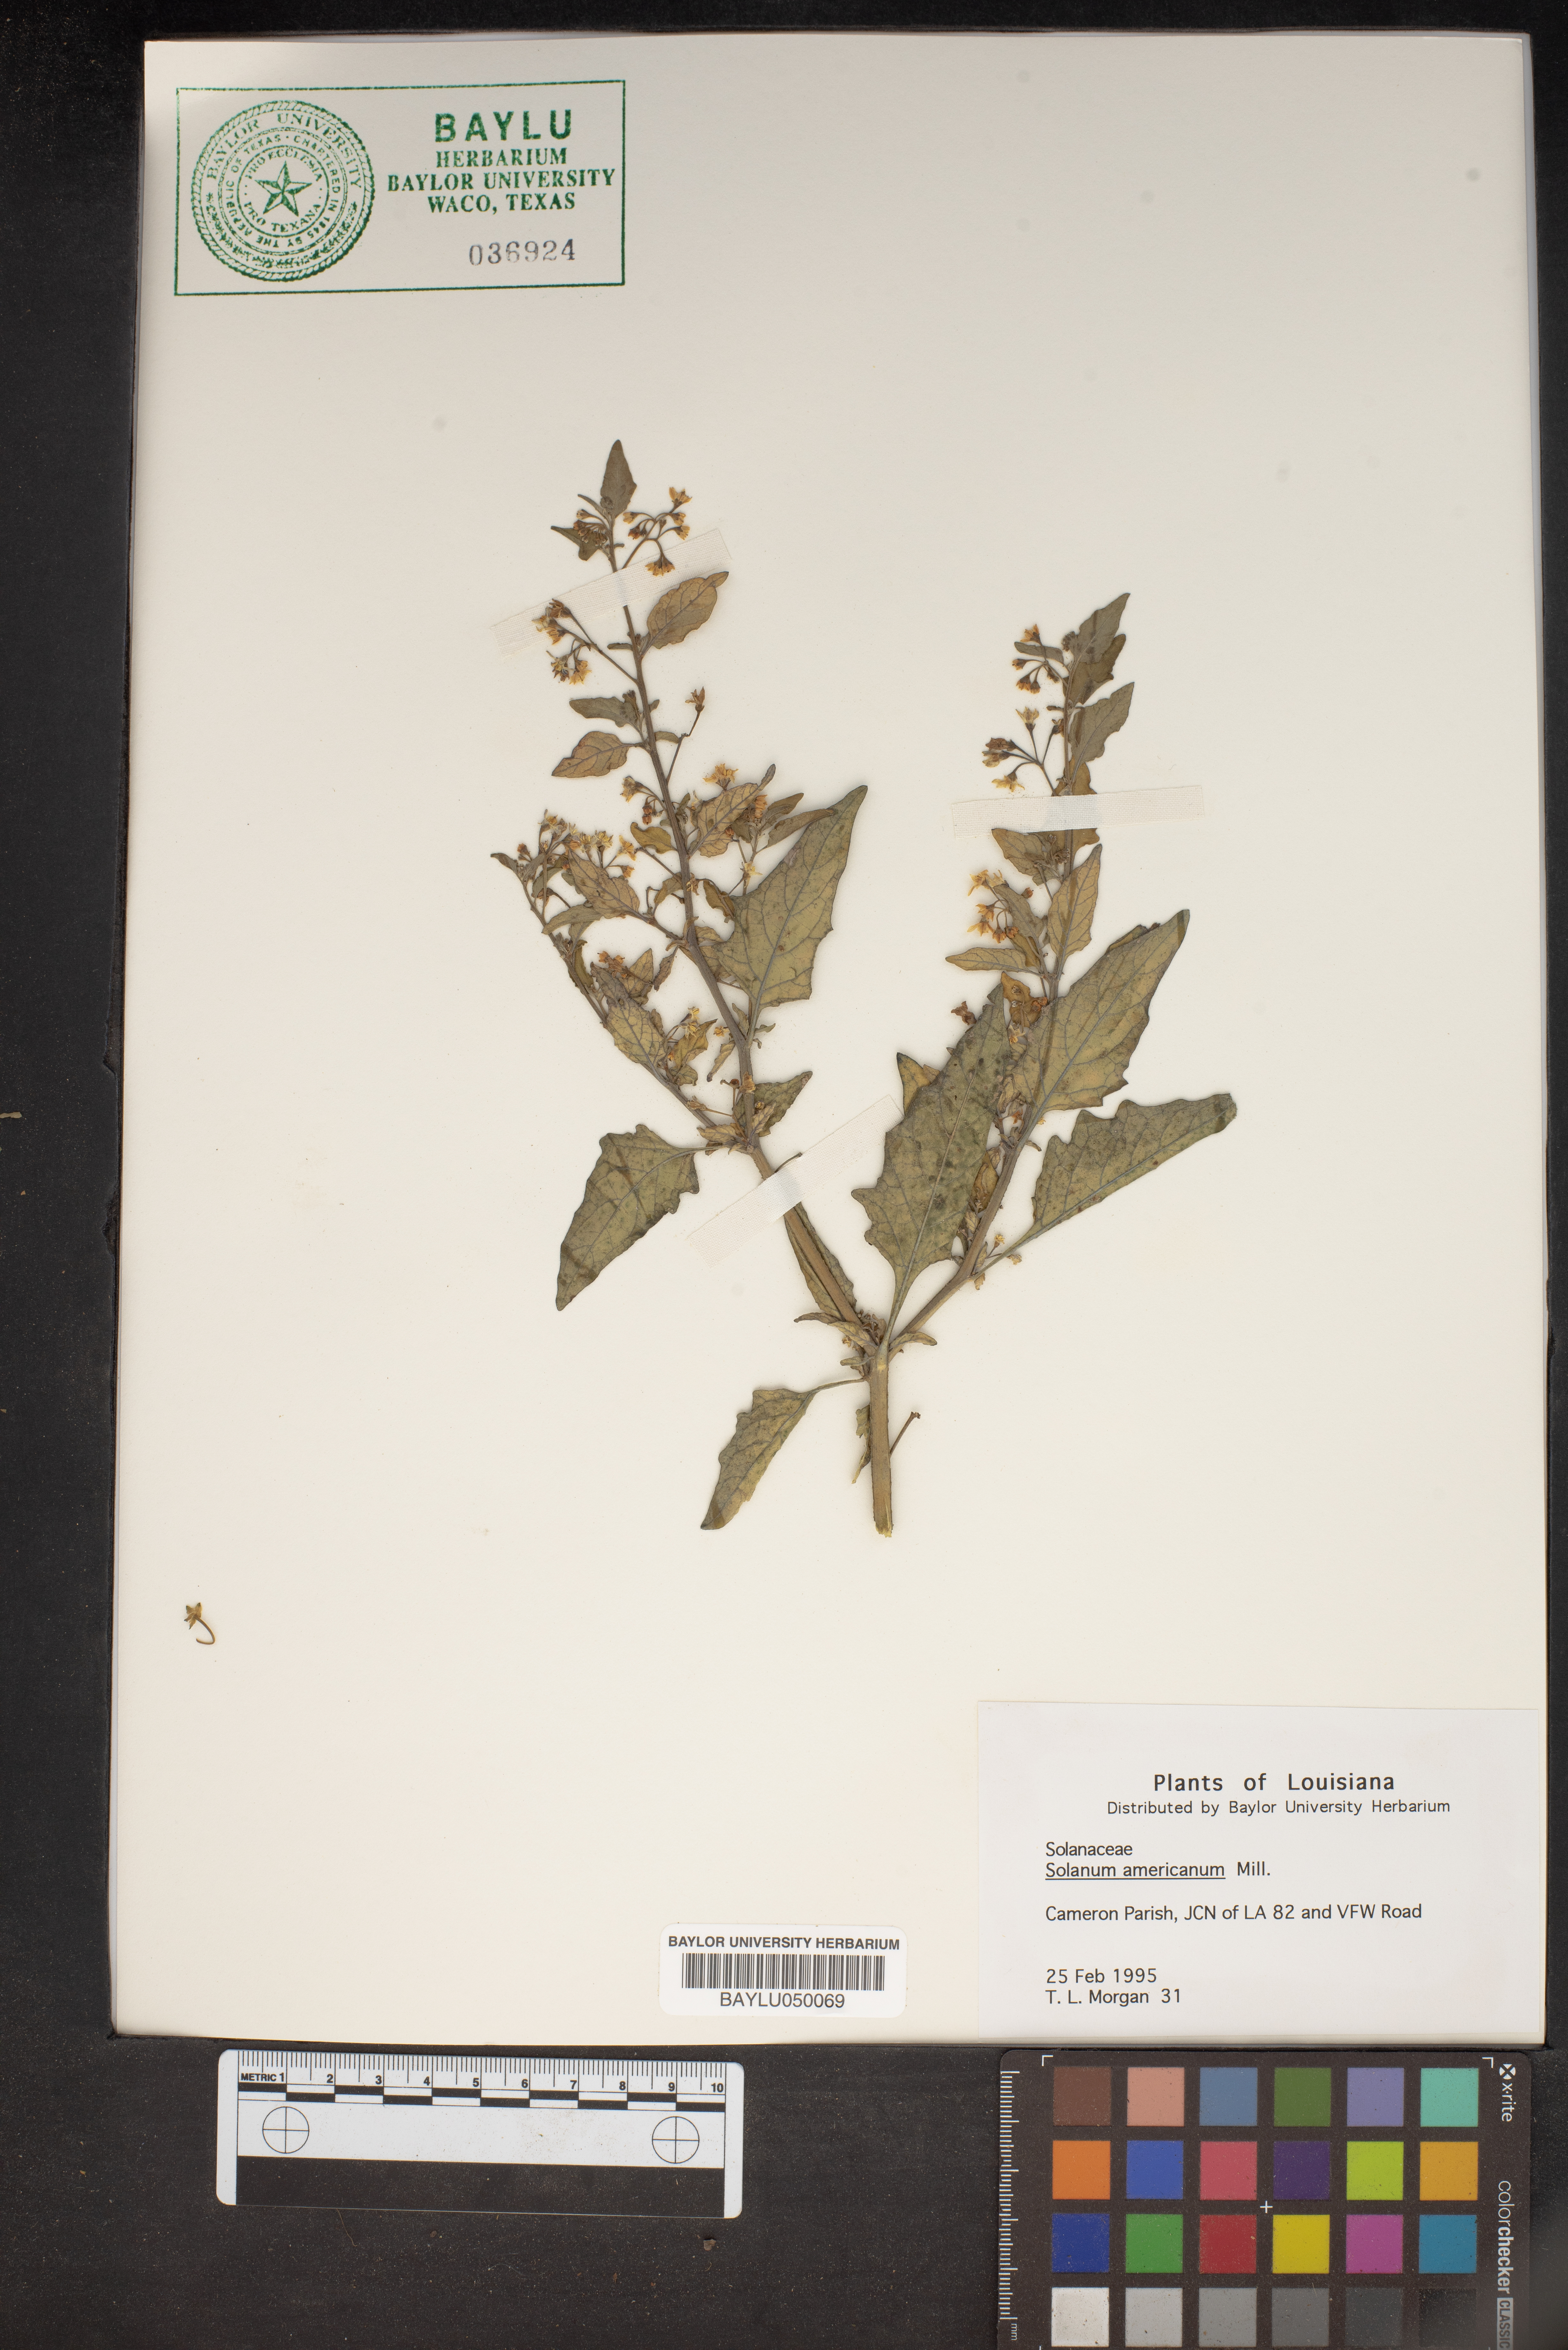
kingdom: Plantae
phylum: Tracheophyta
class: Magnoliopsida
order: Solanales
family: Solanaceae
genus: Solanum
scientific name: Solanum americanum
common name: American black nightshade
